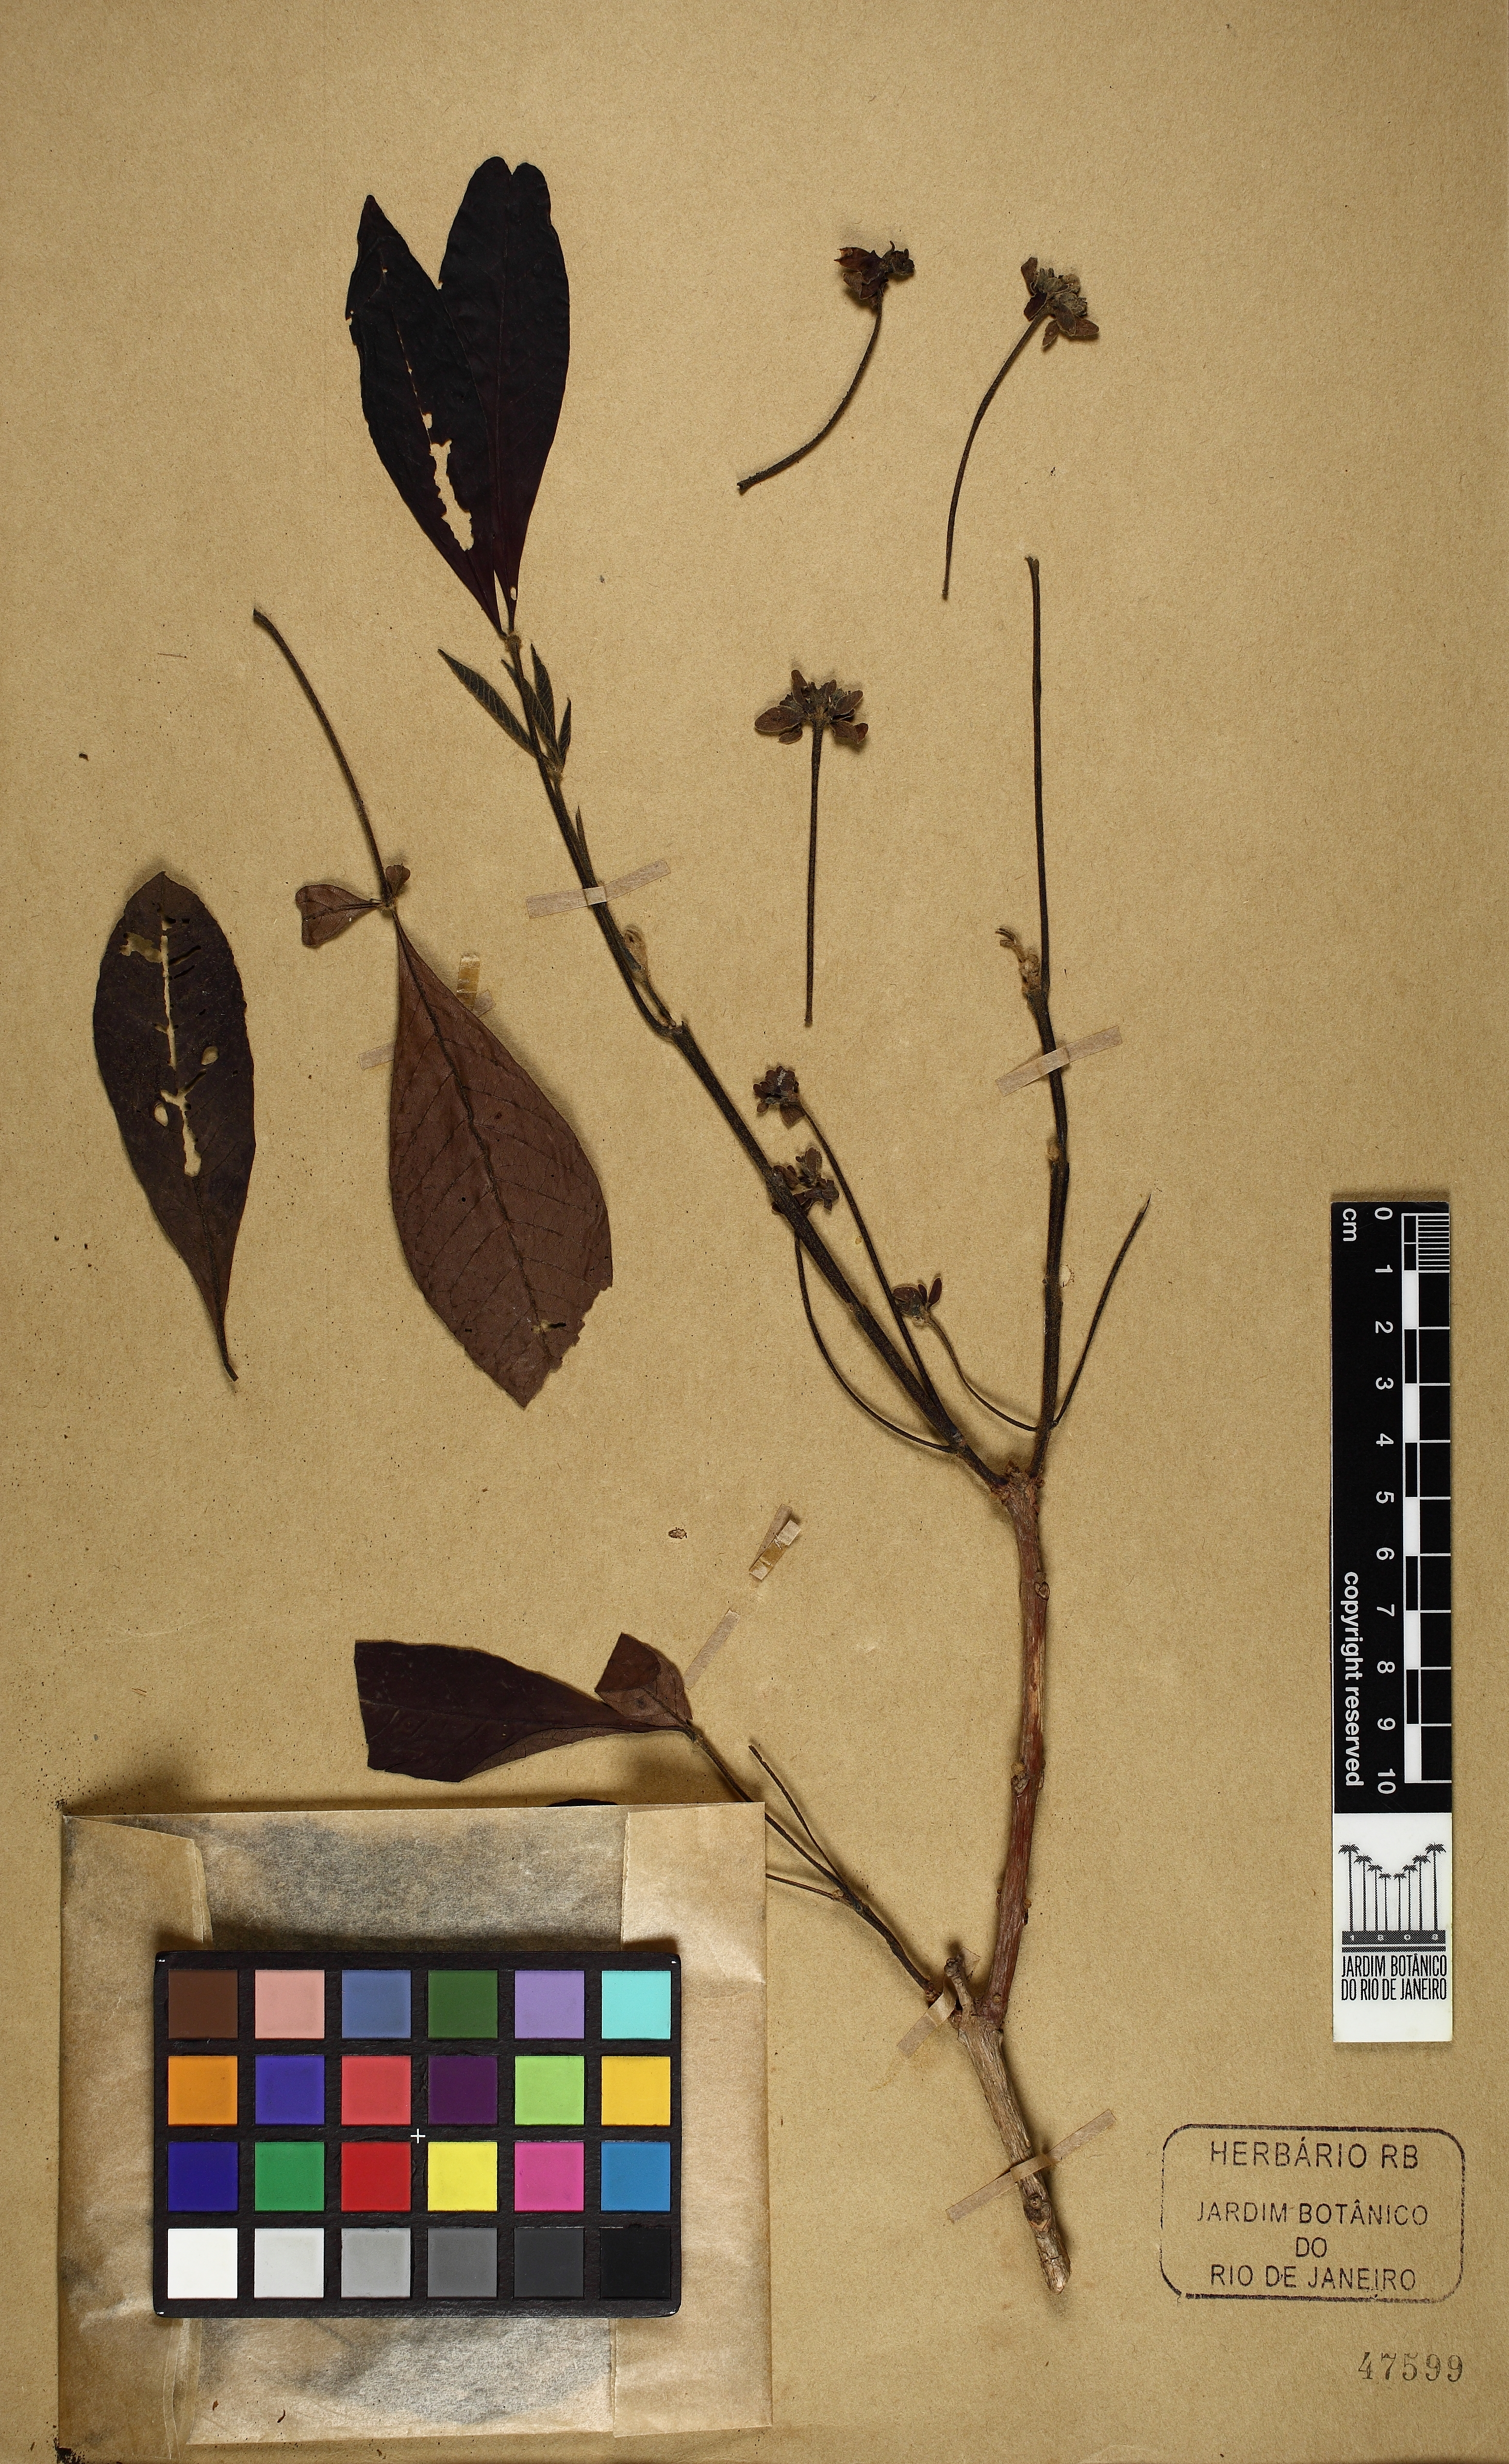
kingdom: Plantae
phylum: Tracheophyta
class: Magnoliopsida
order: Lamiales
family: Lamiaceae
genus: Vitex
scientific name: Vitex schaueriana
